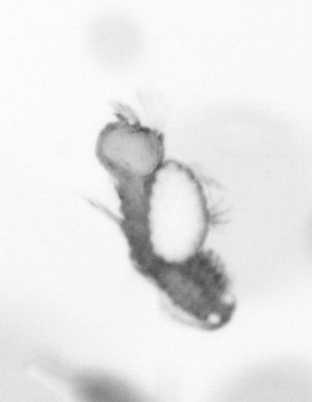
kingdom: Animalia
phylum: Annelida
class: Polychaeta
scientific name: Polychaeta
